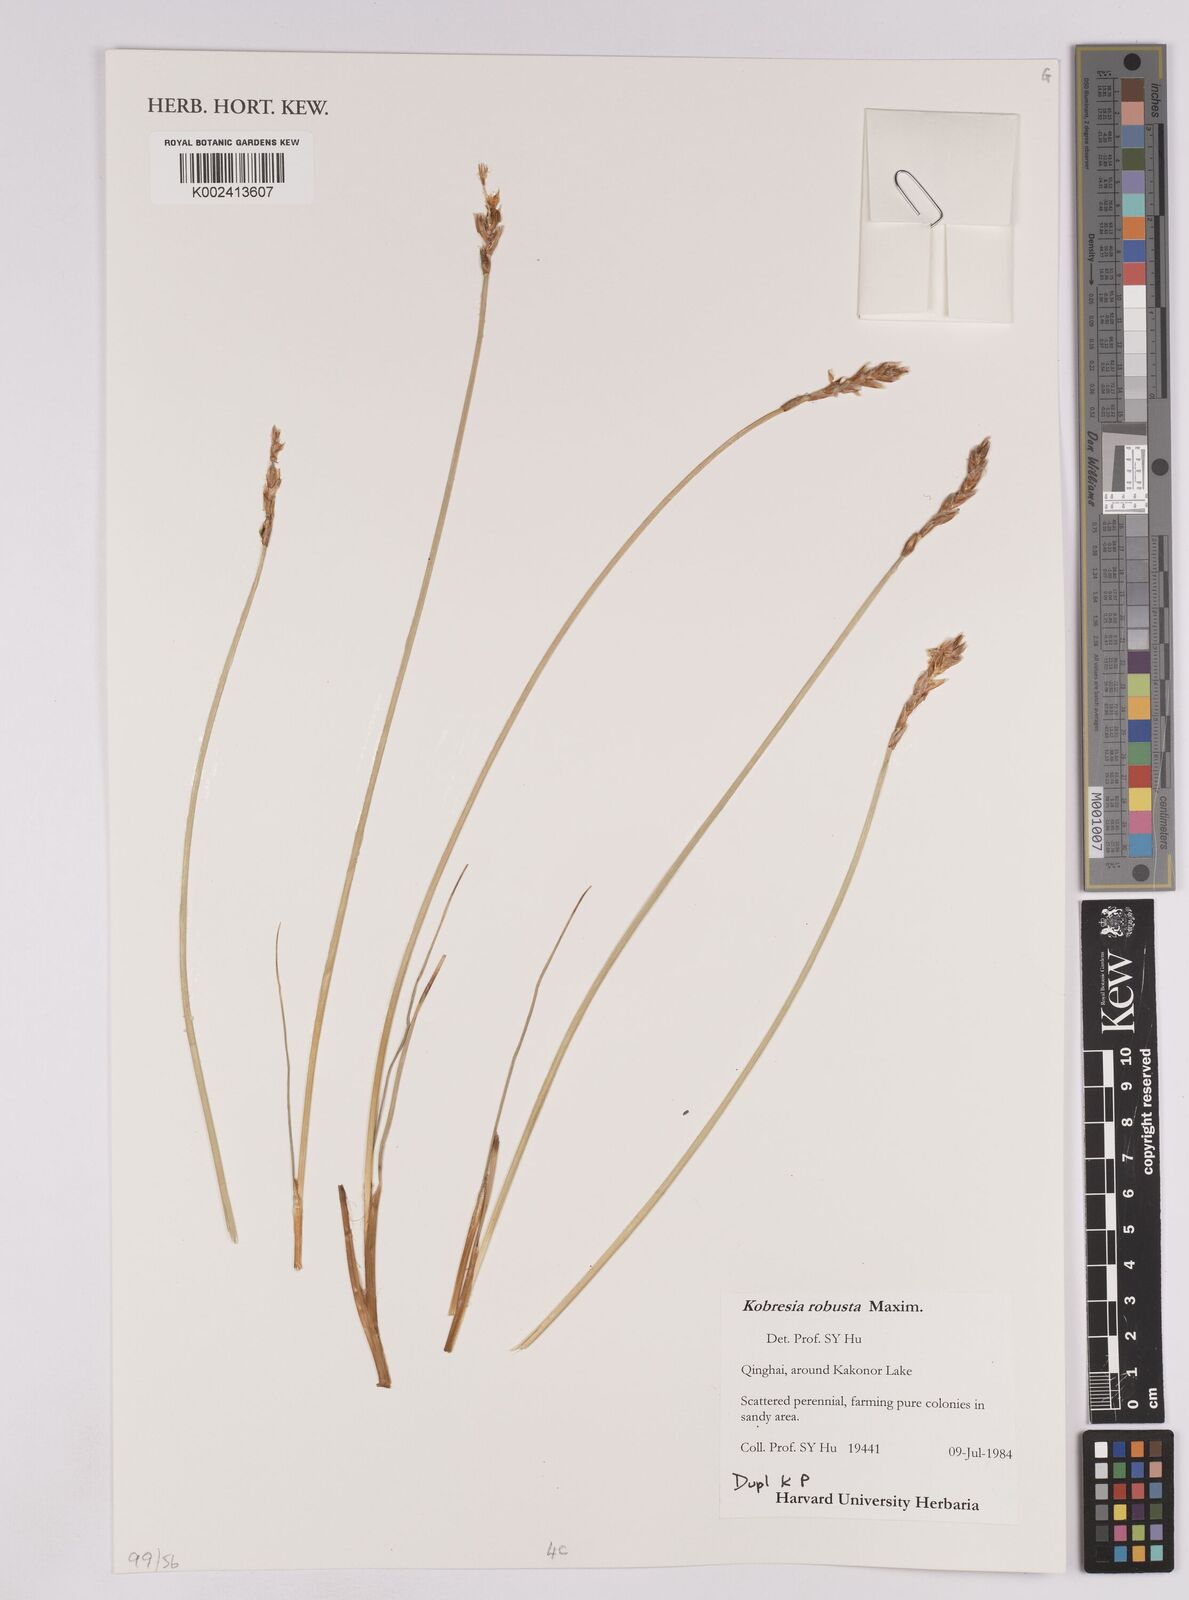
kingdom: Plantae
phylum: Tracheophyta
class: Liliopsida
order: Poales
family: Cyperaceae
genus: Carex
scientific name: Carex sargentiana
